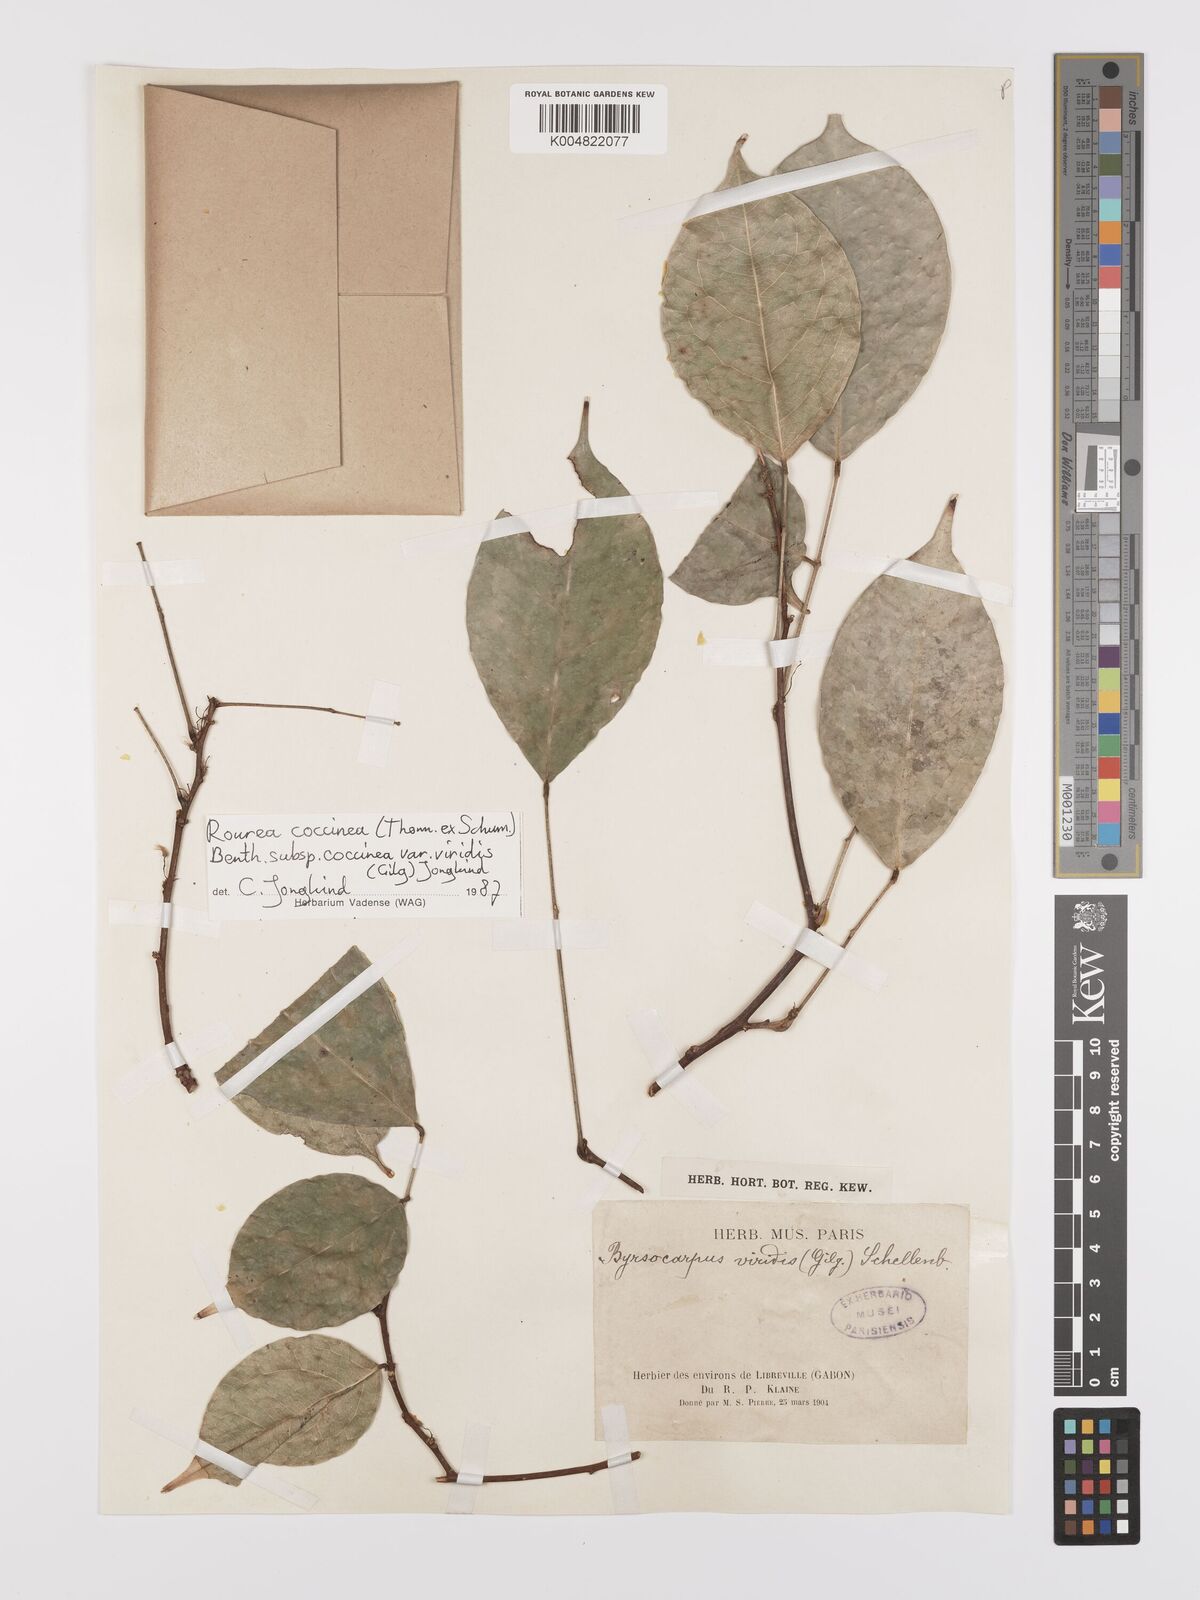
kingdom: Plantae
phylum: Tracheophyta
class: Magnoliopsida
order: Oxalidales
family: Connaraceae
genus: Rourea
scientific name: Rourea coccinea
